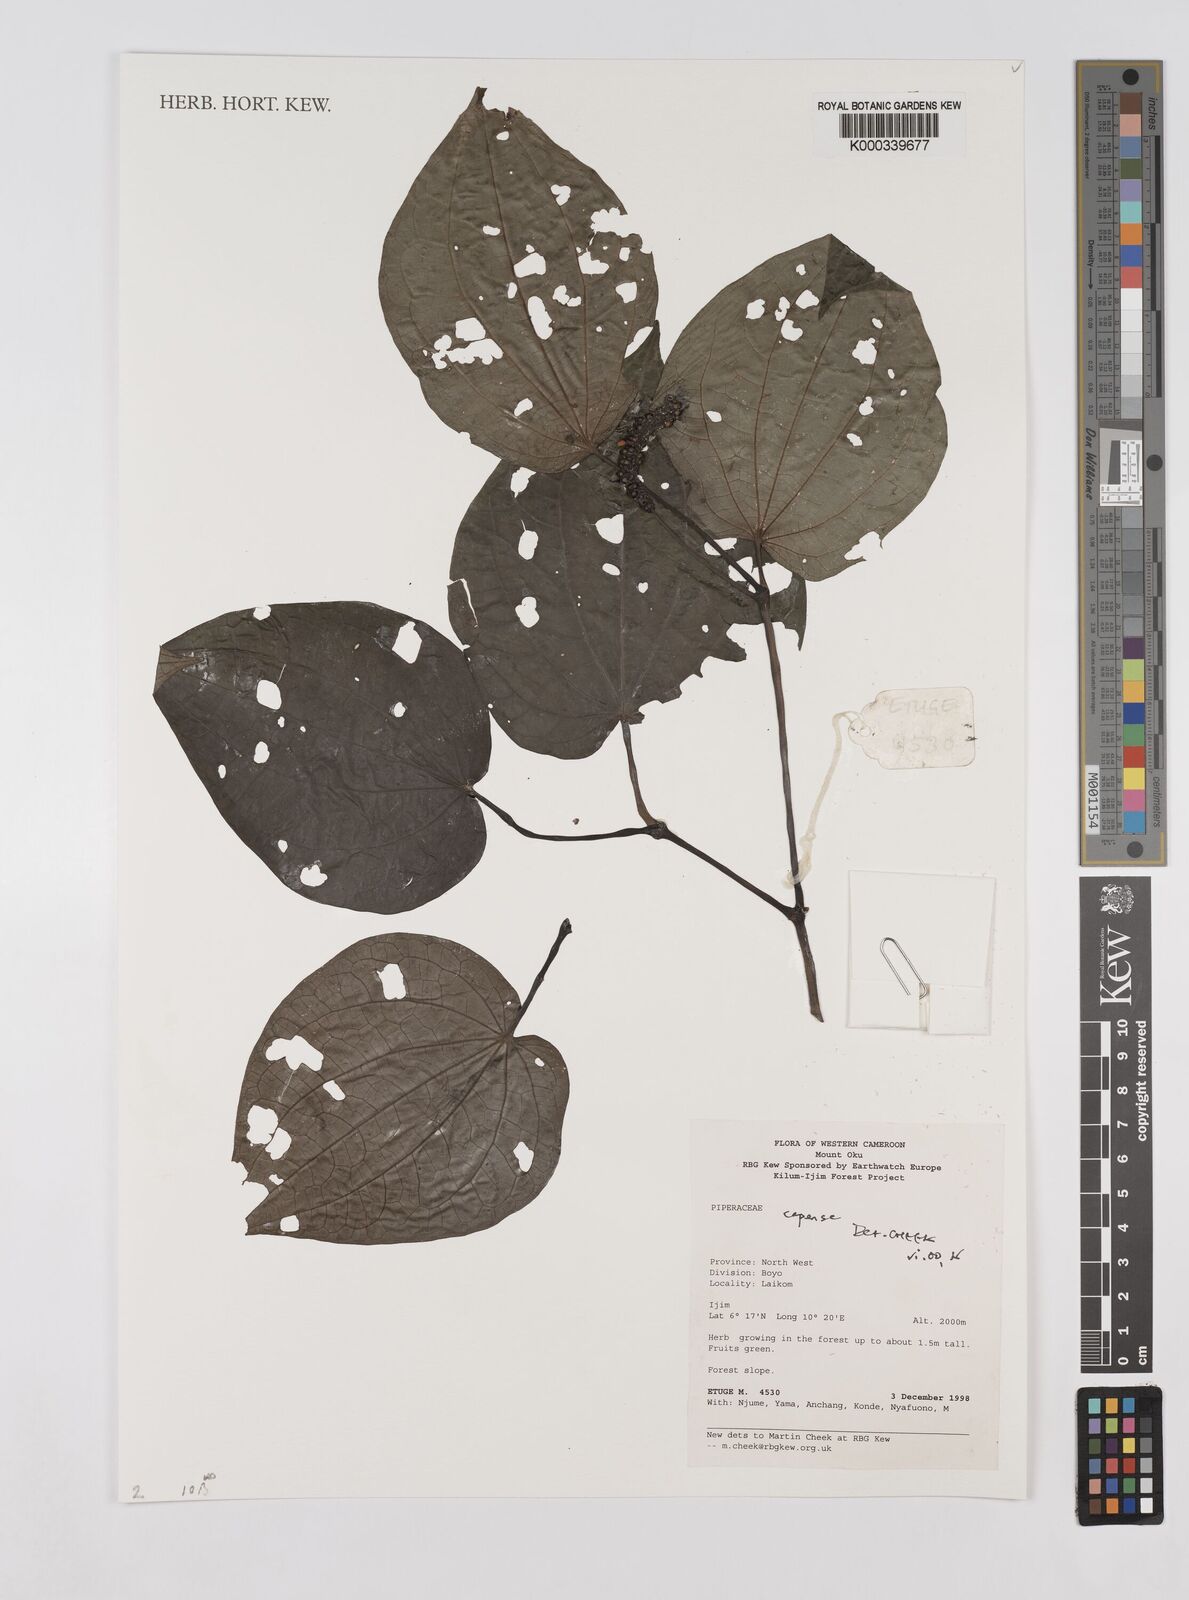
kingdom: Plantae
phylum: Tracheophyta
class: Magnoliopsida
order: Piperales
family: Piperaceae
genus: Piper
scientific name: Piper capense
